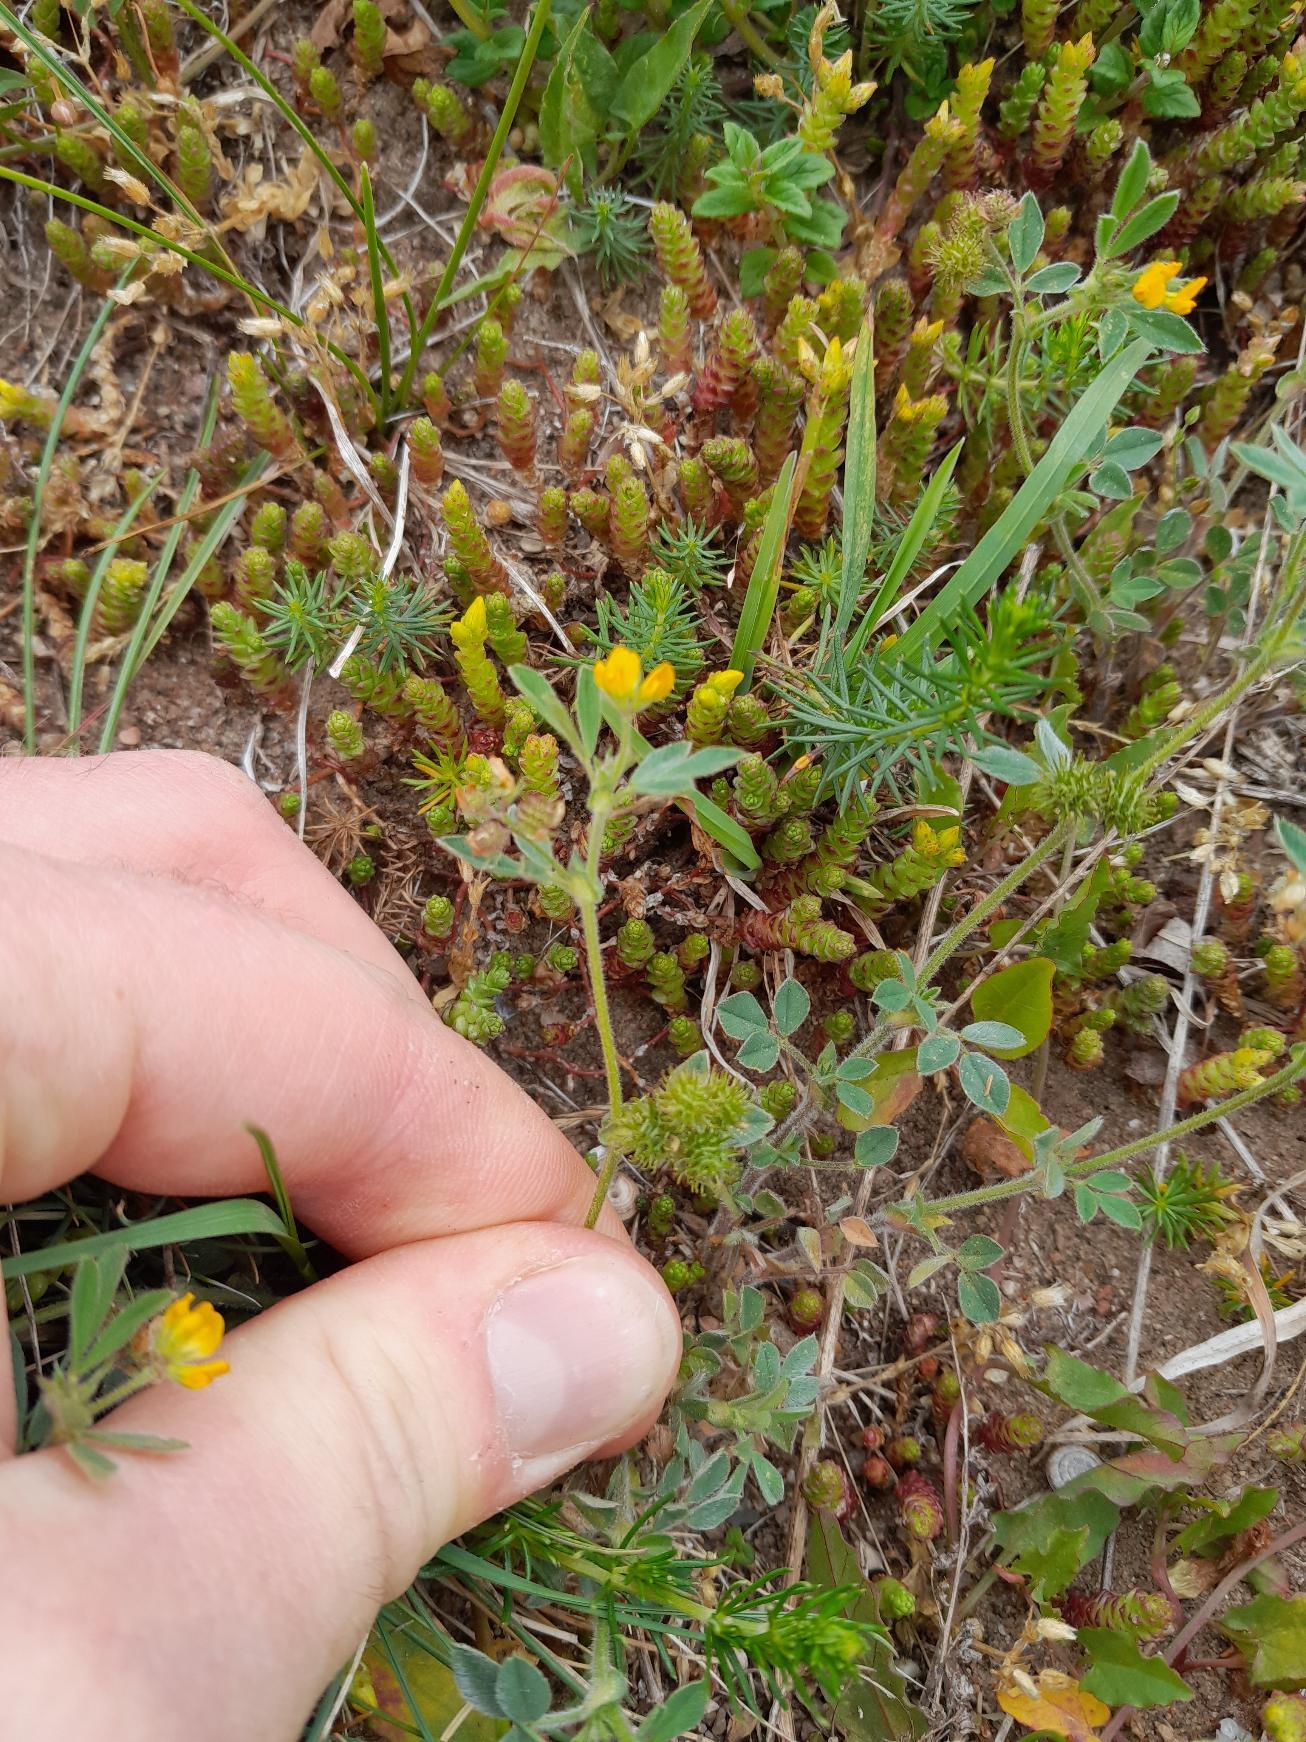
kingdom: Plantae
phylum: Tracheophyta
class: Magnoliopsida
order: Fabales
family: Fabaceae
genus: Medicago
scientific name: Medicago minima
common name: Liden sneglebælg
